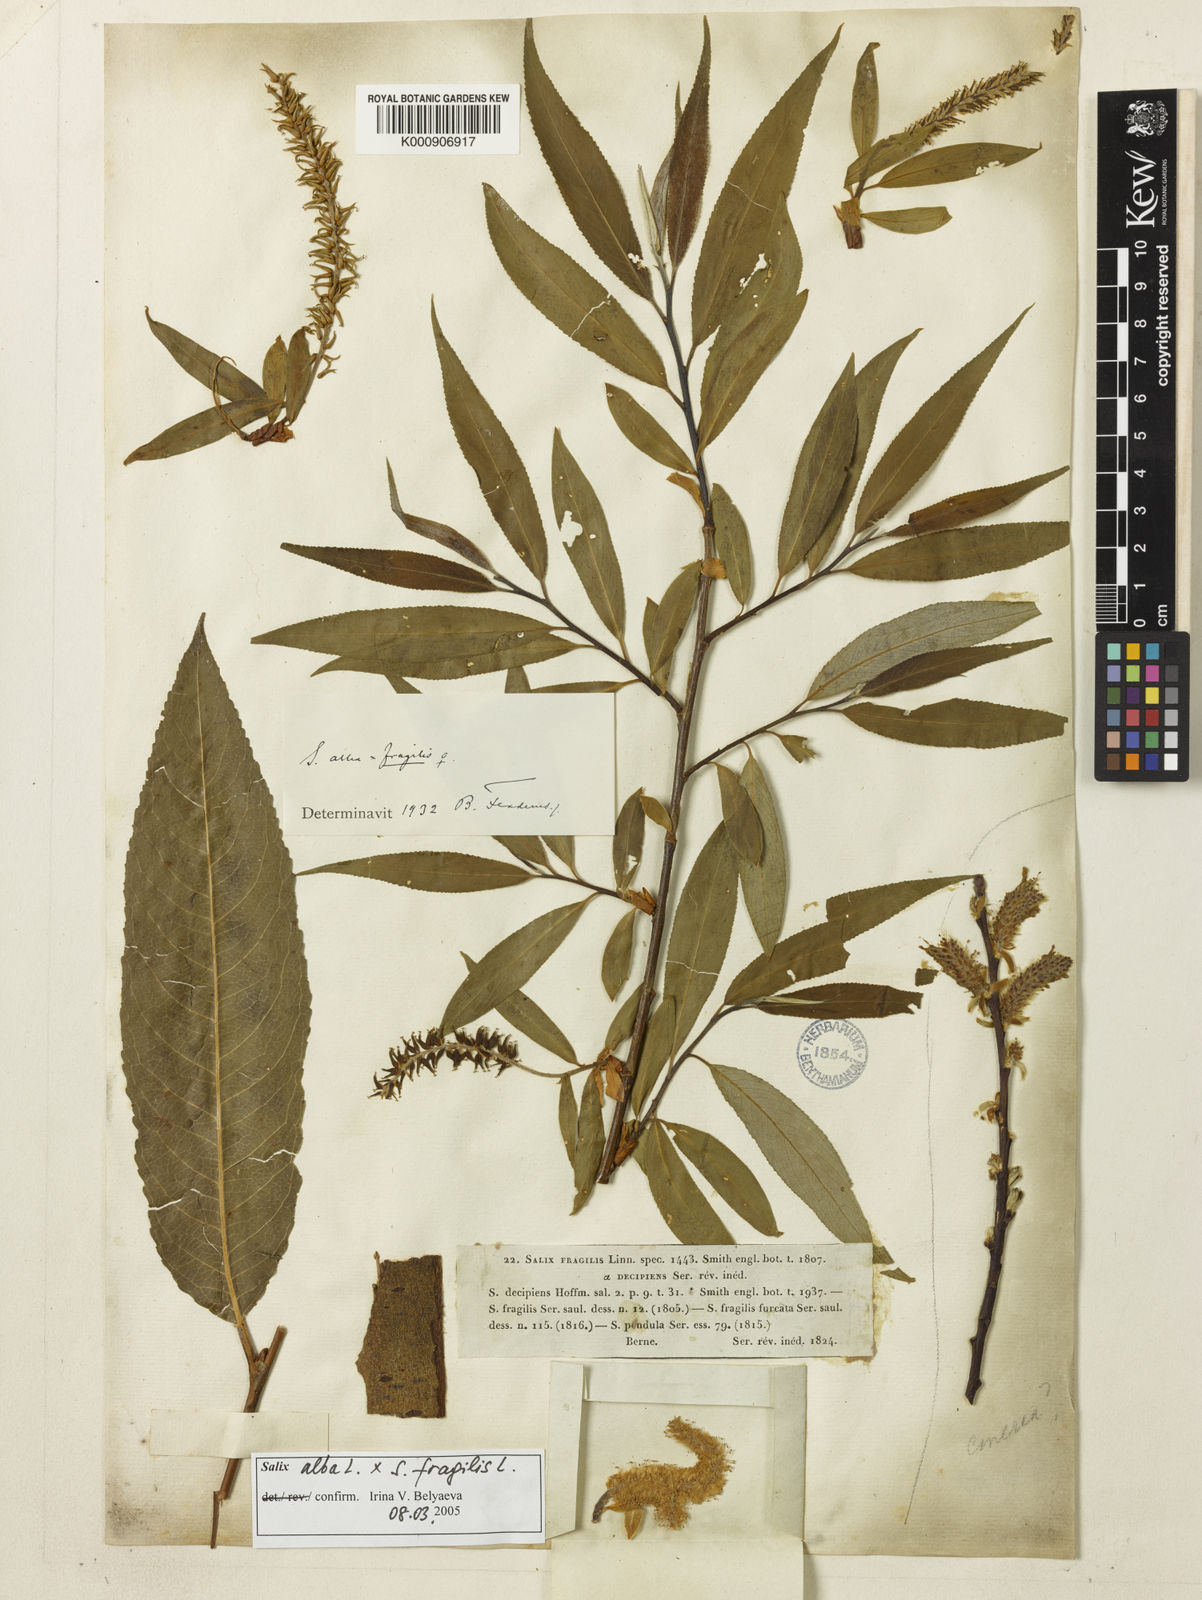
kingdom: Plantae
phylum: Tracheophyta
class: Magnoliopsida
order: Malpighiales
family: Salicaceae
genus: Salix
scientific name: Salix fragilis
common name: Crack willow
